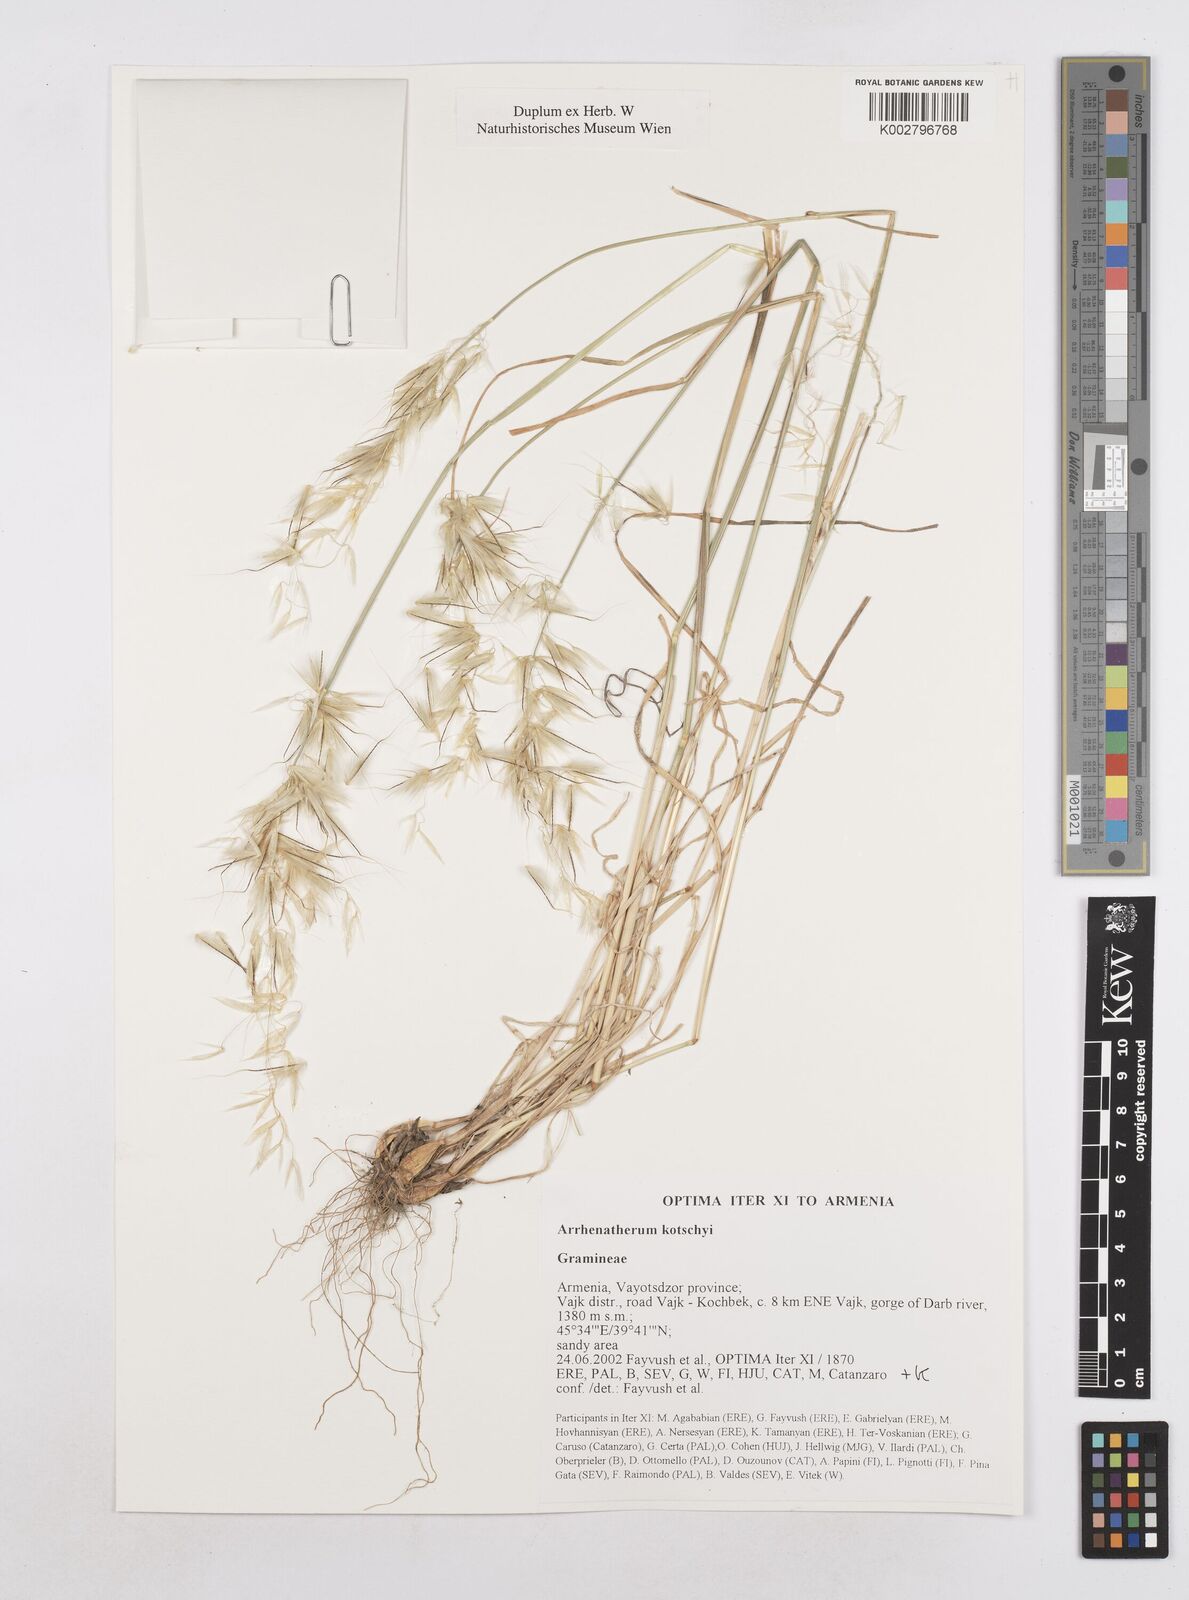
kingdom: Plantae
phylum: Tracheophyta
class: Liliopsida
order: Poales
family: Poaceae
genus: Arrhenatherum
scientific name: Arrhenatherum kotschyi
